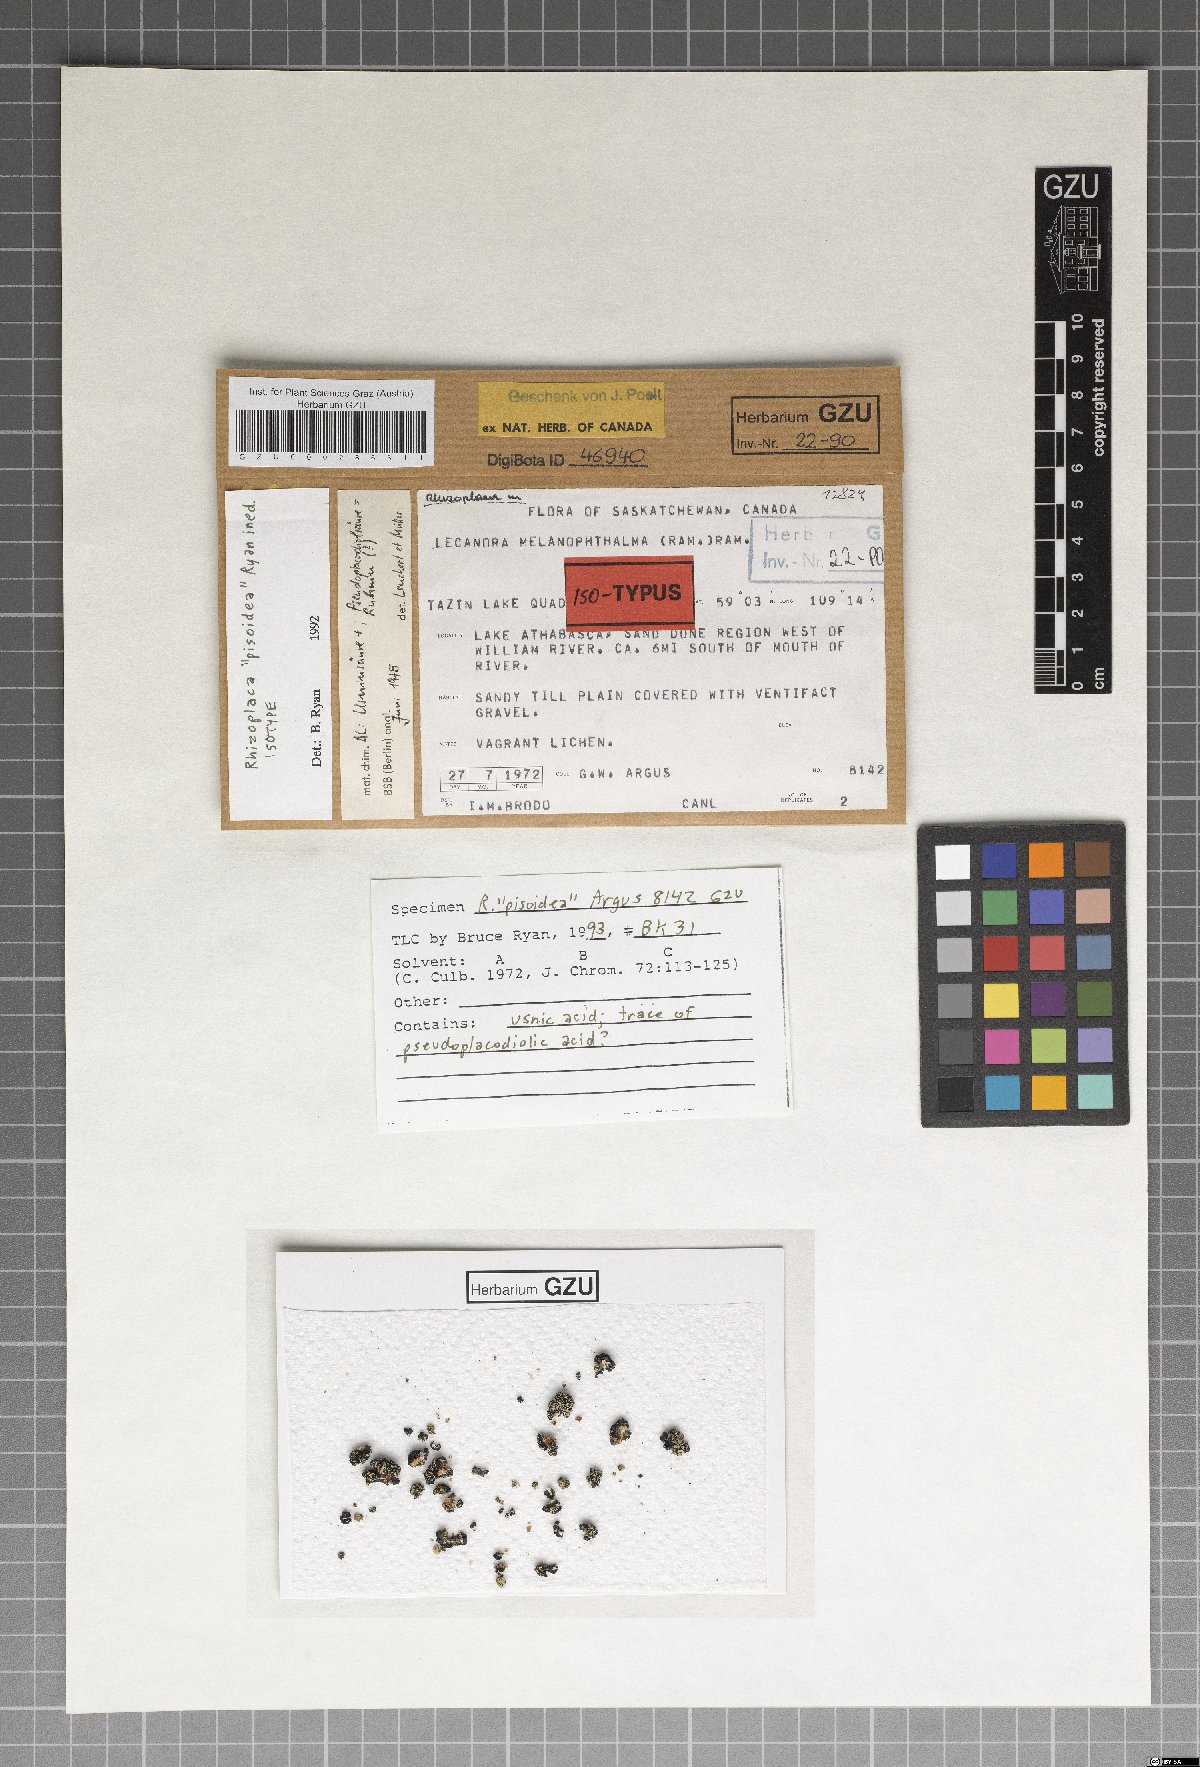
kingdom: Fungi
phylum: Ascomycota
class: Lecanoromycetes
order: Lecanorales
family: Lecanoraceae
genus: Rhizoplaca
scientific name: Rhizoplaca
